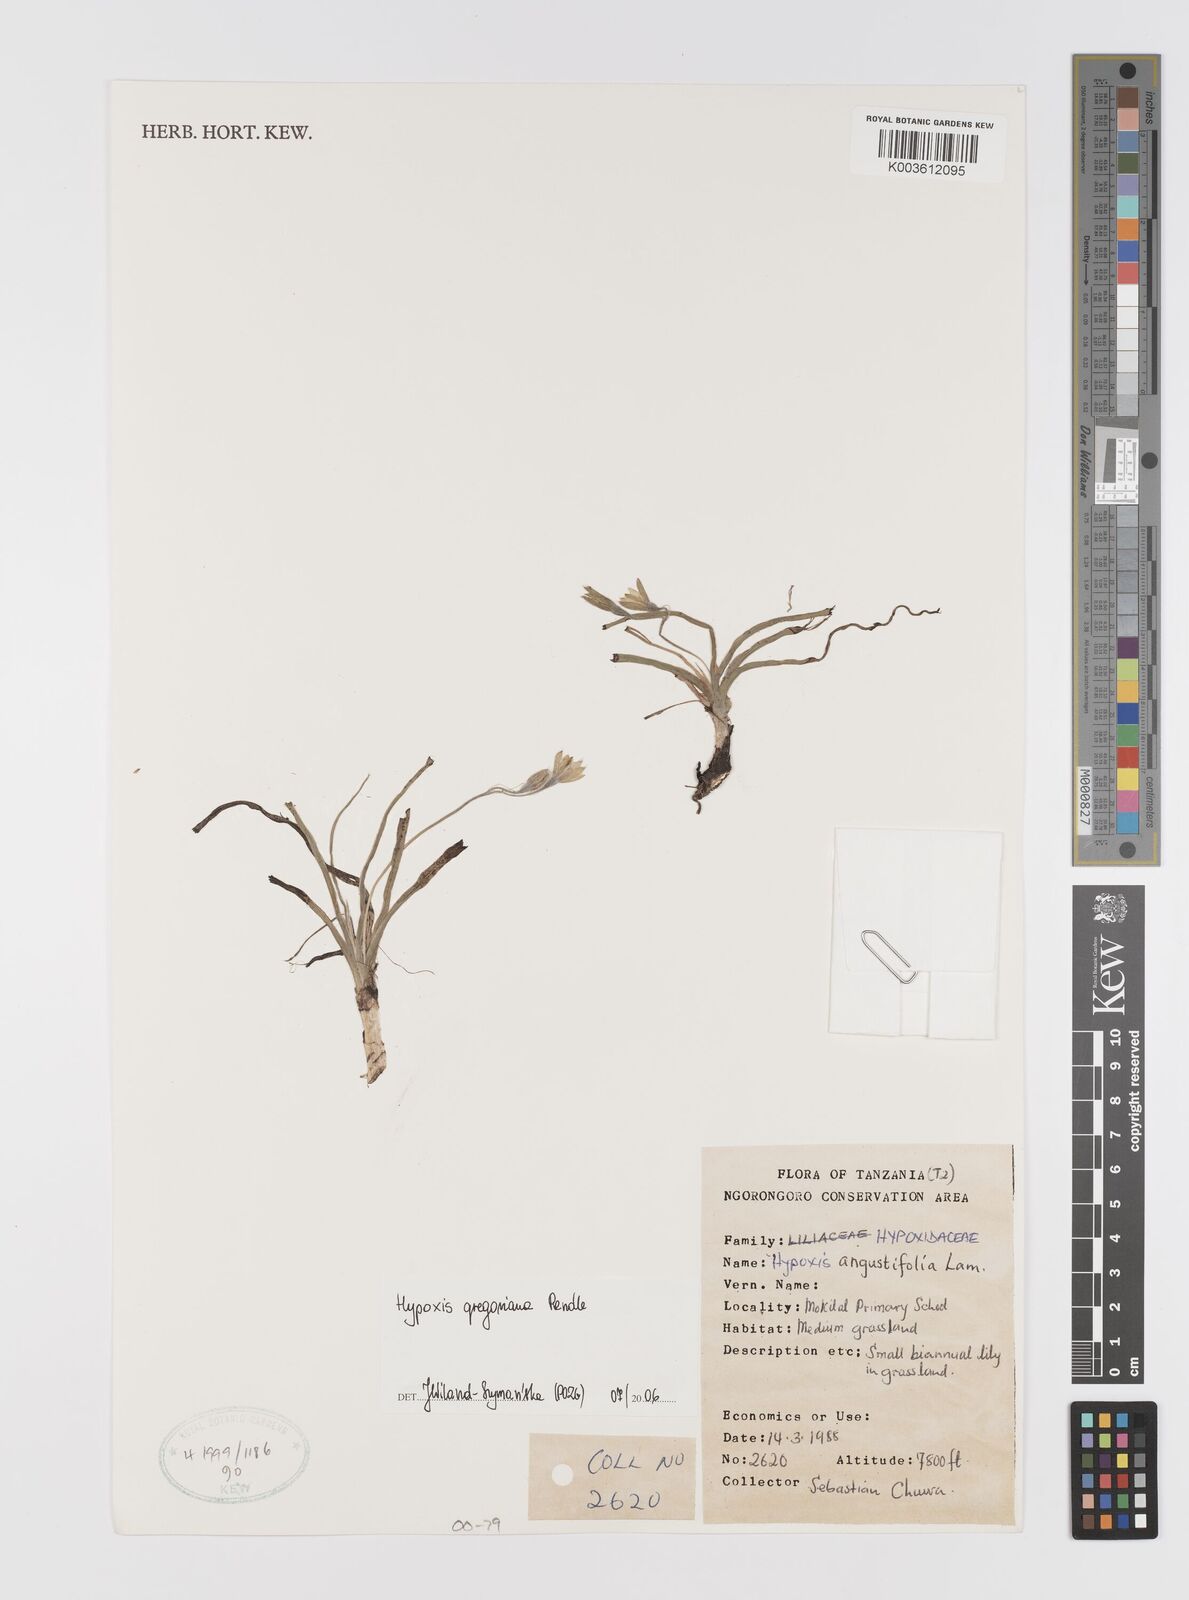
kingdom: Plantae
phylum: Tracheophyta
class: Liliopsida
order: Asparagales
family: Hypoxidaceae
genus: Hypoxis
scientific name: Hypoxis gregoriana
